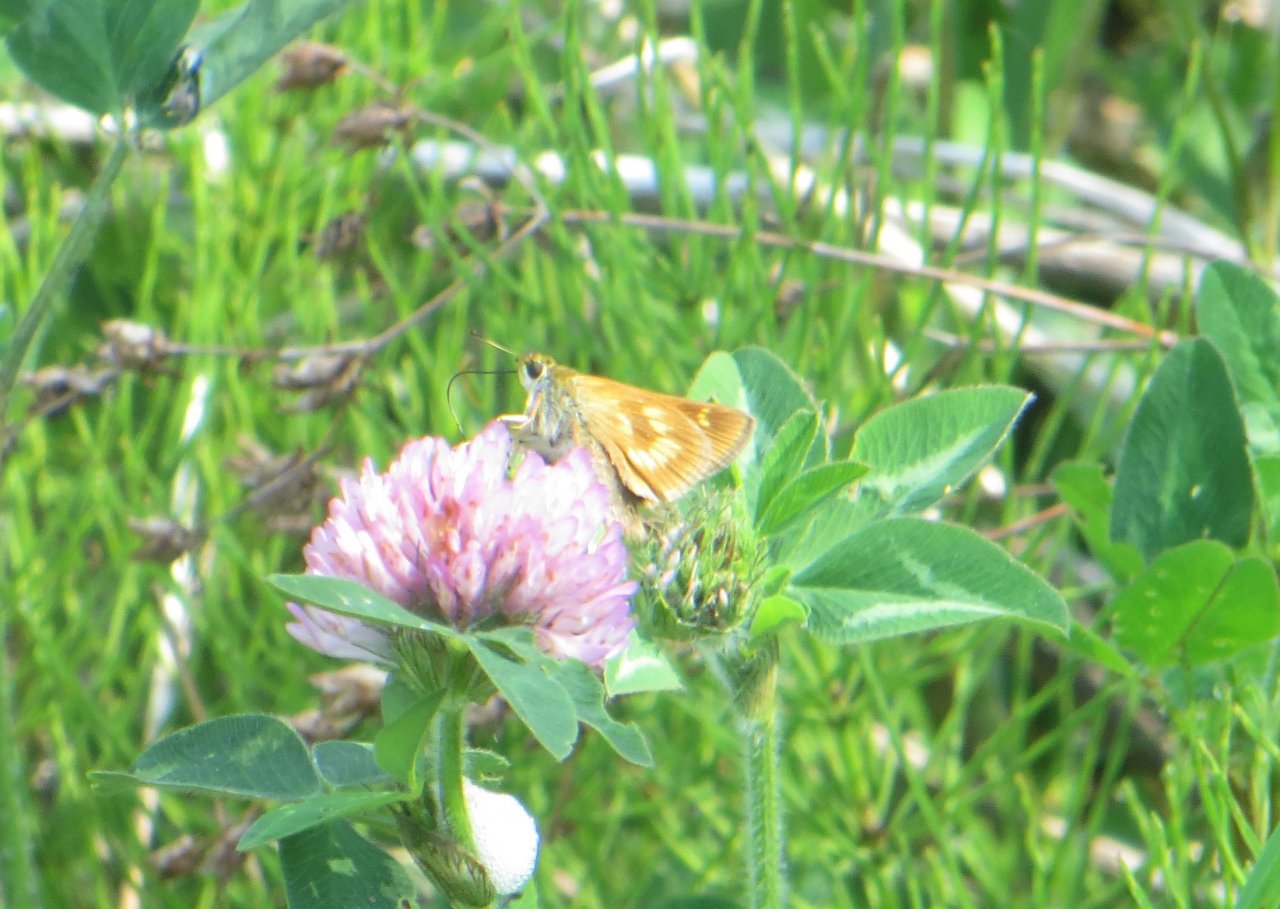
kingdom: Animalia
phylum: Arthropoda
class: Insecta
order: Lepidoptera
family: Hesperiidae
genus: Polites
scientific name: Polites
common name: Long Dash Skipper
